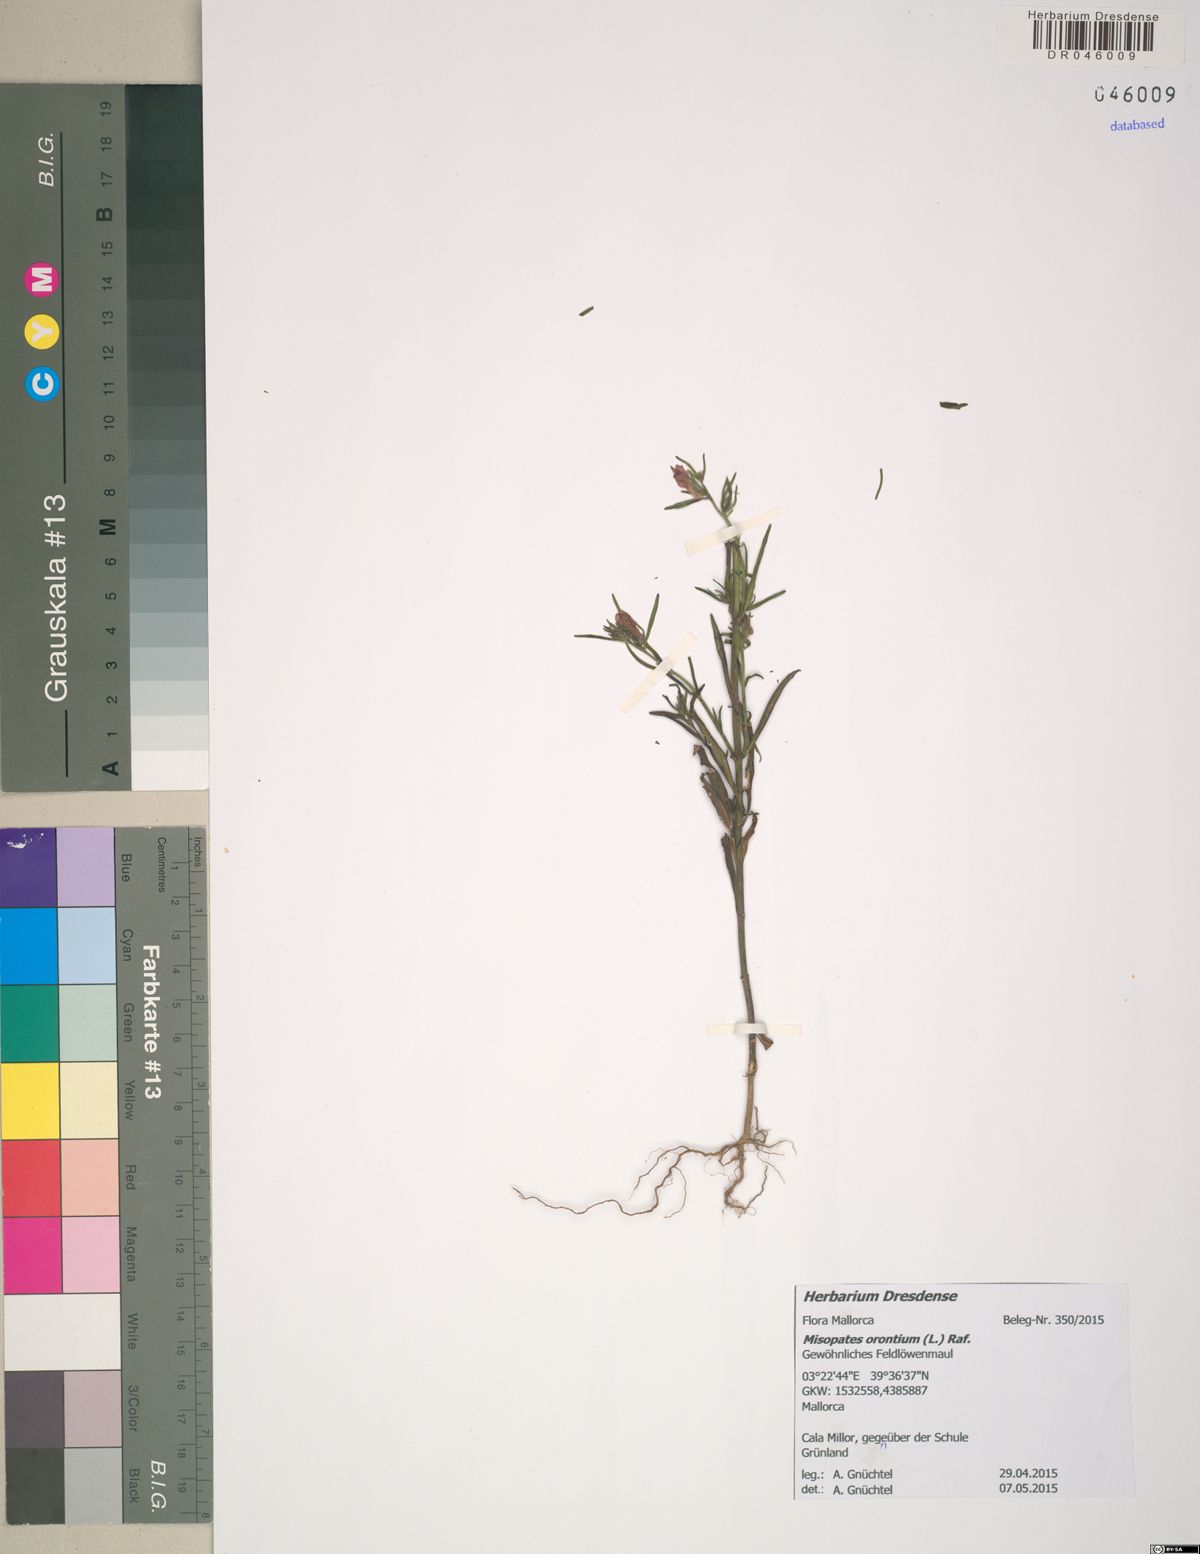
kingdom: Plantae
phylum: Tracheophyta
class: Magnoliopsida
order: Lamiales
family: Plantaginaceae
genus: Misopates
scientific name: Misopates orontium
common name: Weasel's-snout
